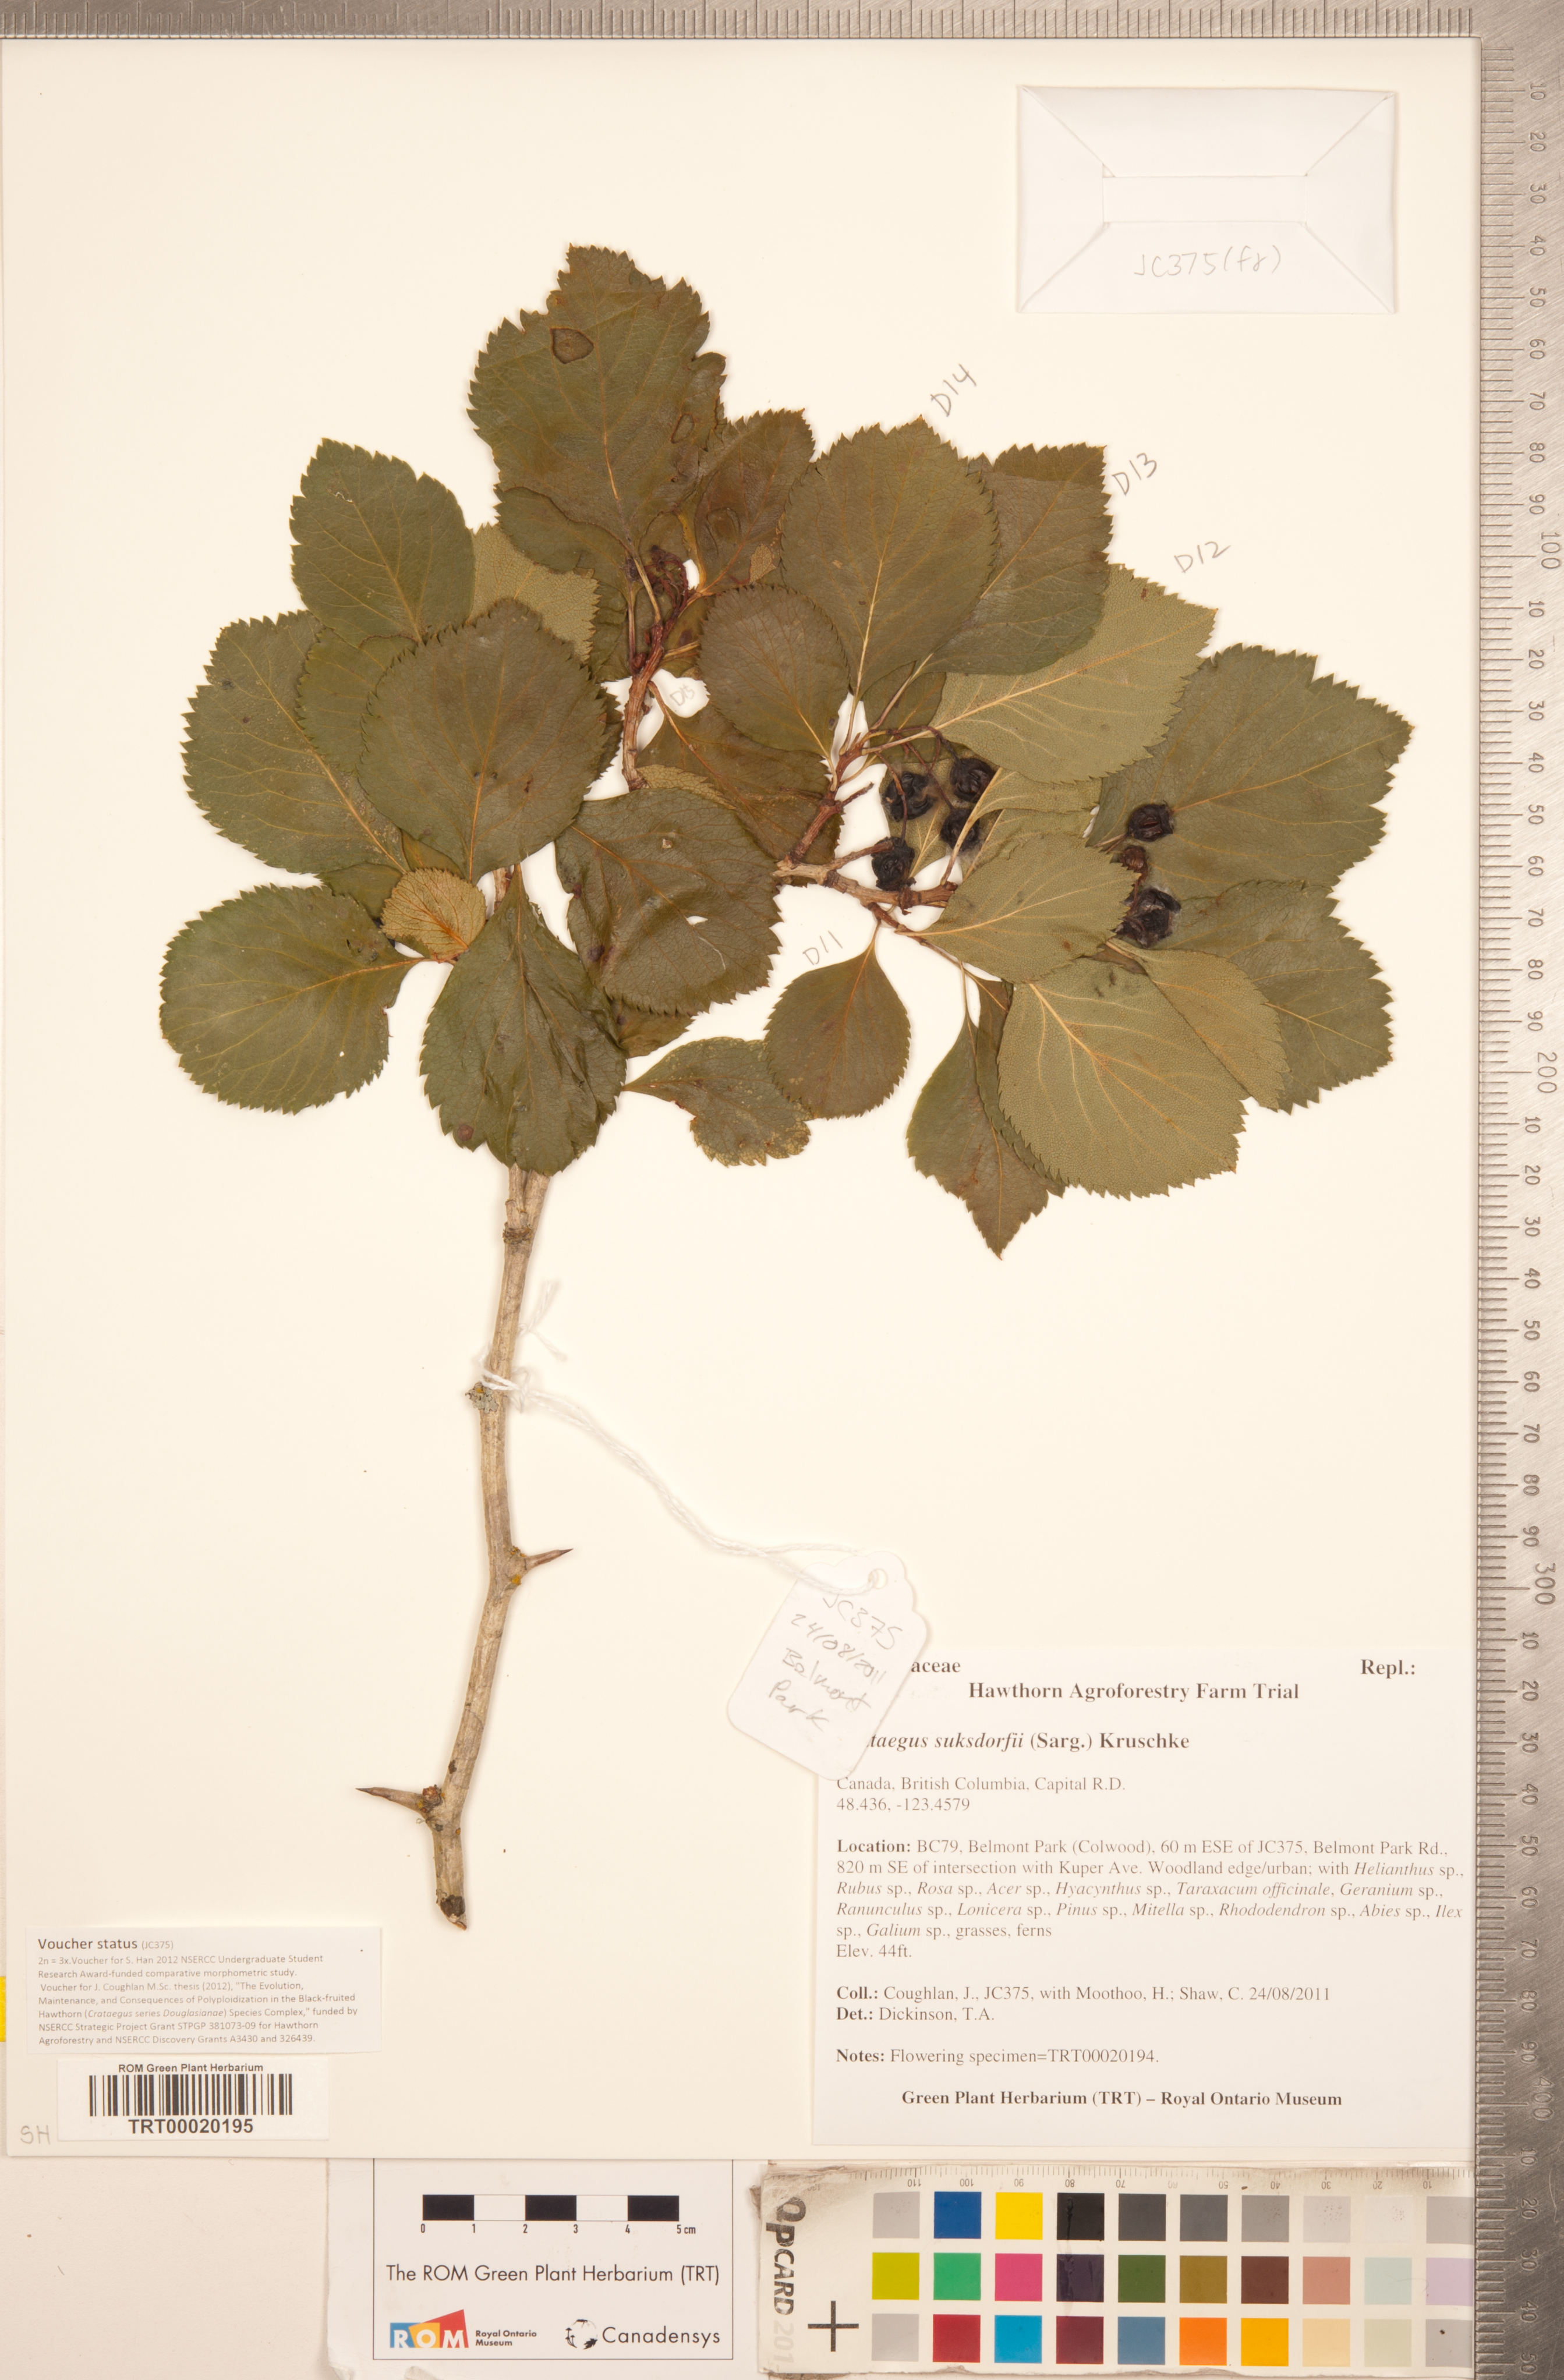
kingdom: Plantae
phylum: Tracheophyta
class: Magnoliopsida
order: Rosales
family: Rosaceae
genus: Crataegus
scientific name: Crataegus gaylussacia
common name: Huckleberry hawthorn
